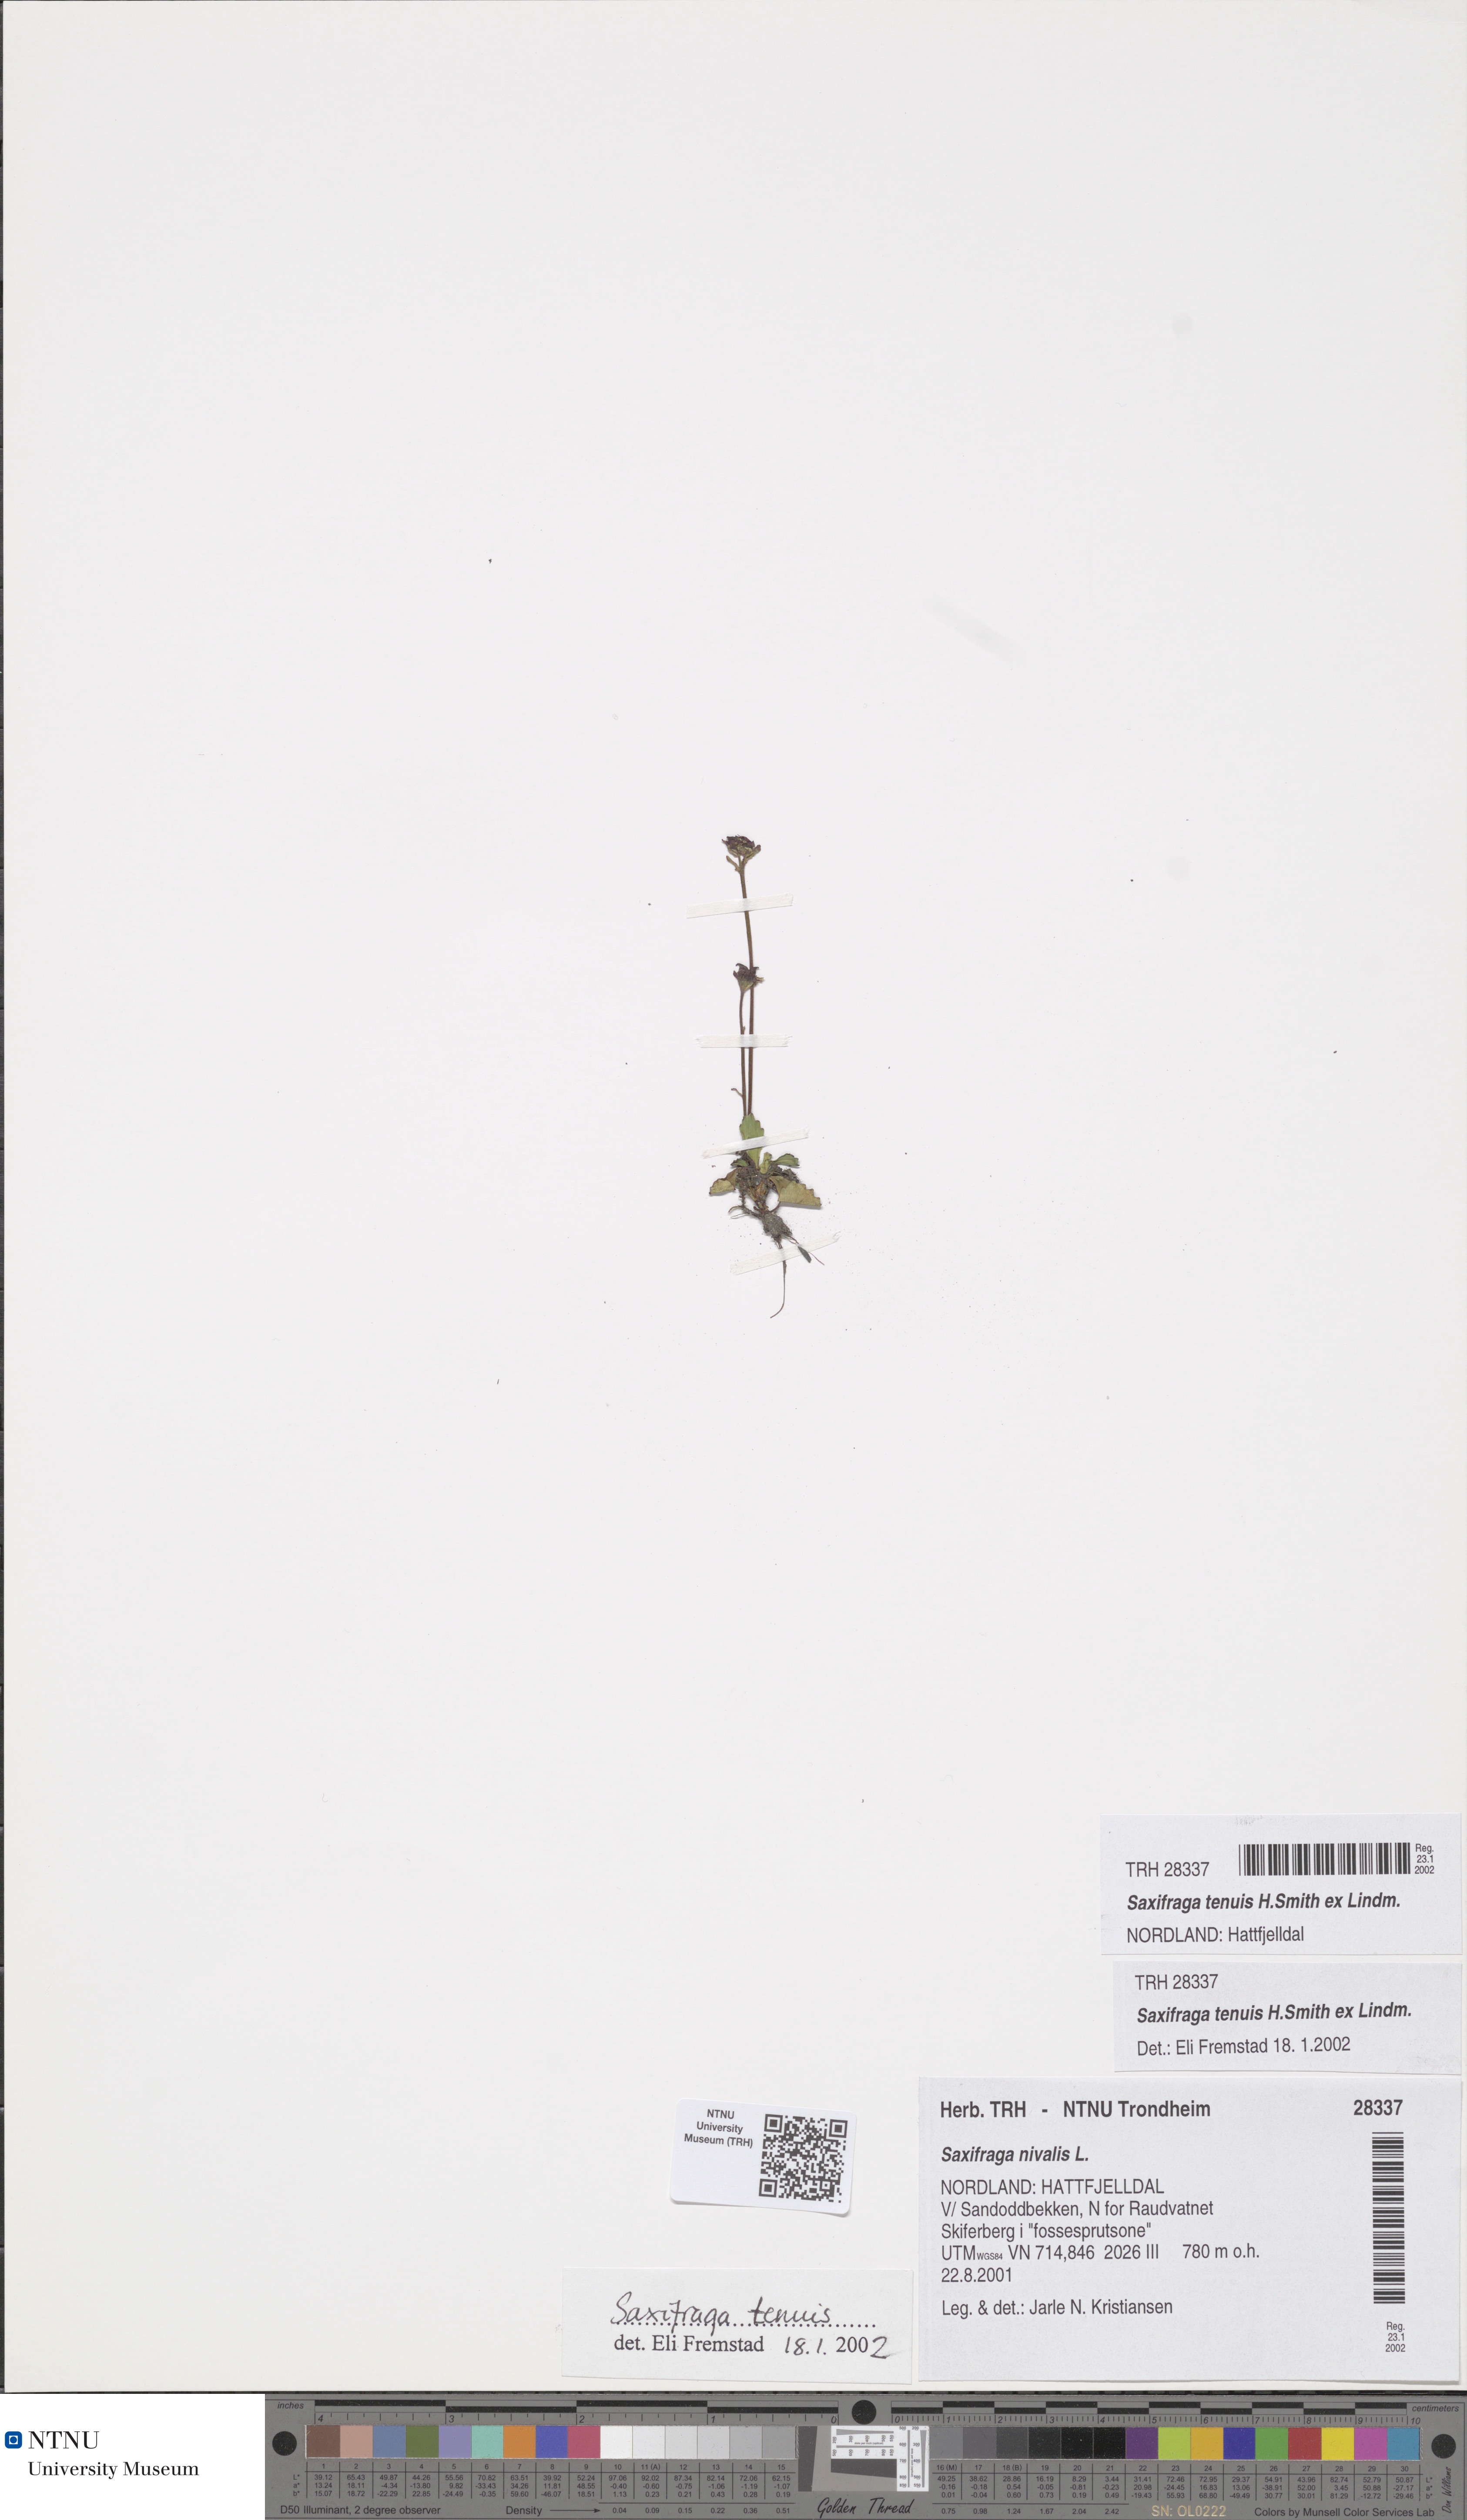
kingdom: Plantae
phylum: Tracheophyta
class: Magnoliopsida
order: Saxifragales
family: Saxifragaceae
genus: Micranthes
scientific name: Micranthes tenuis
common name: Ottertail pass saxifrage
